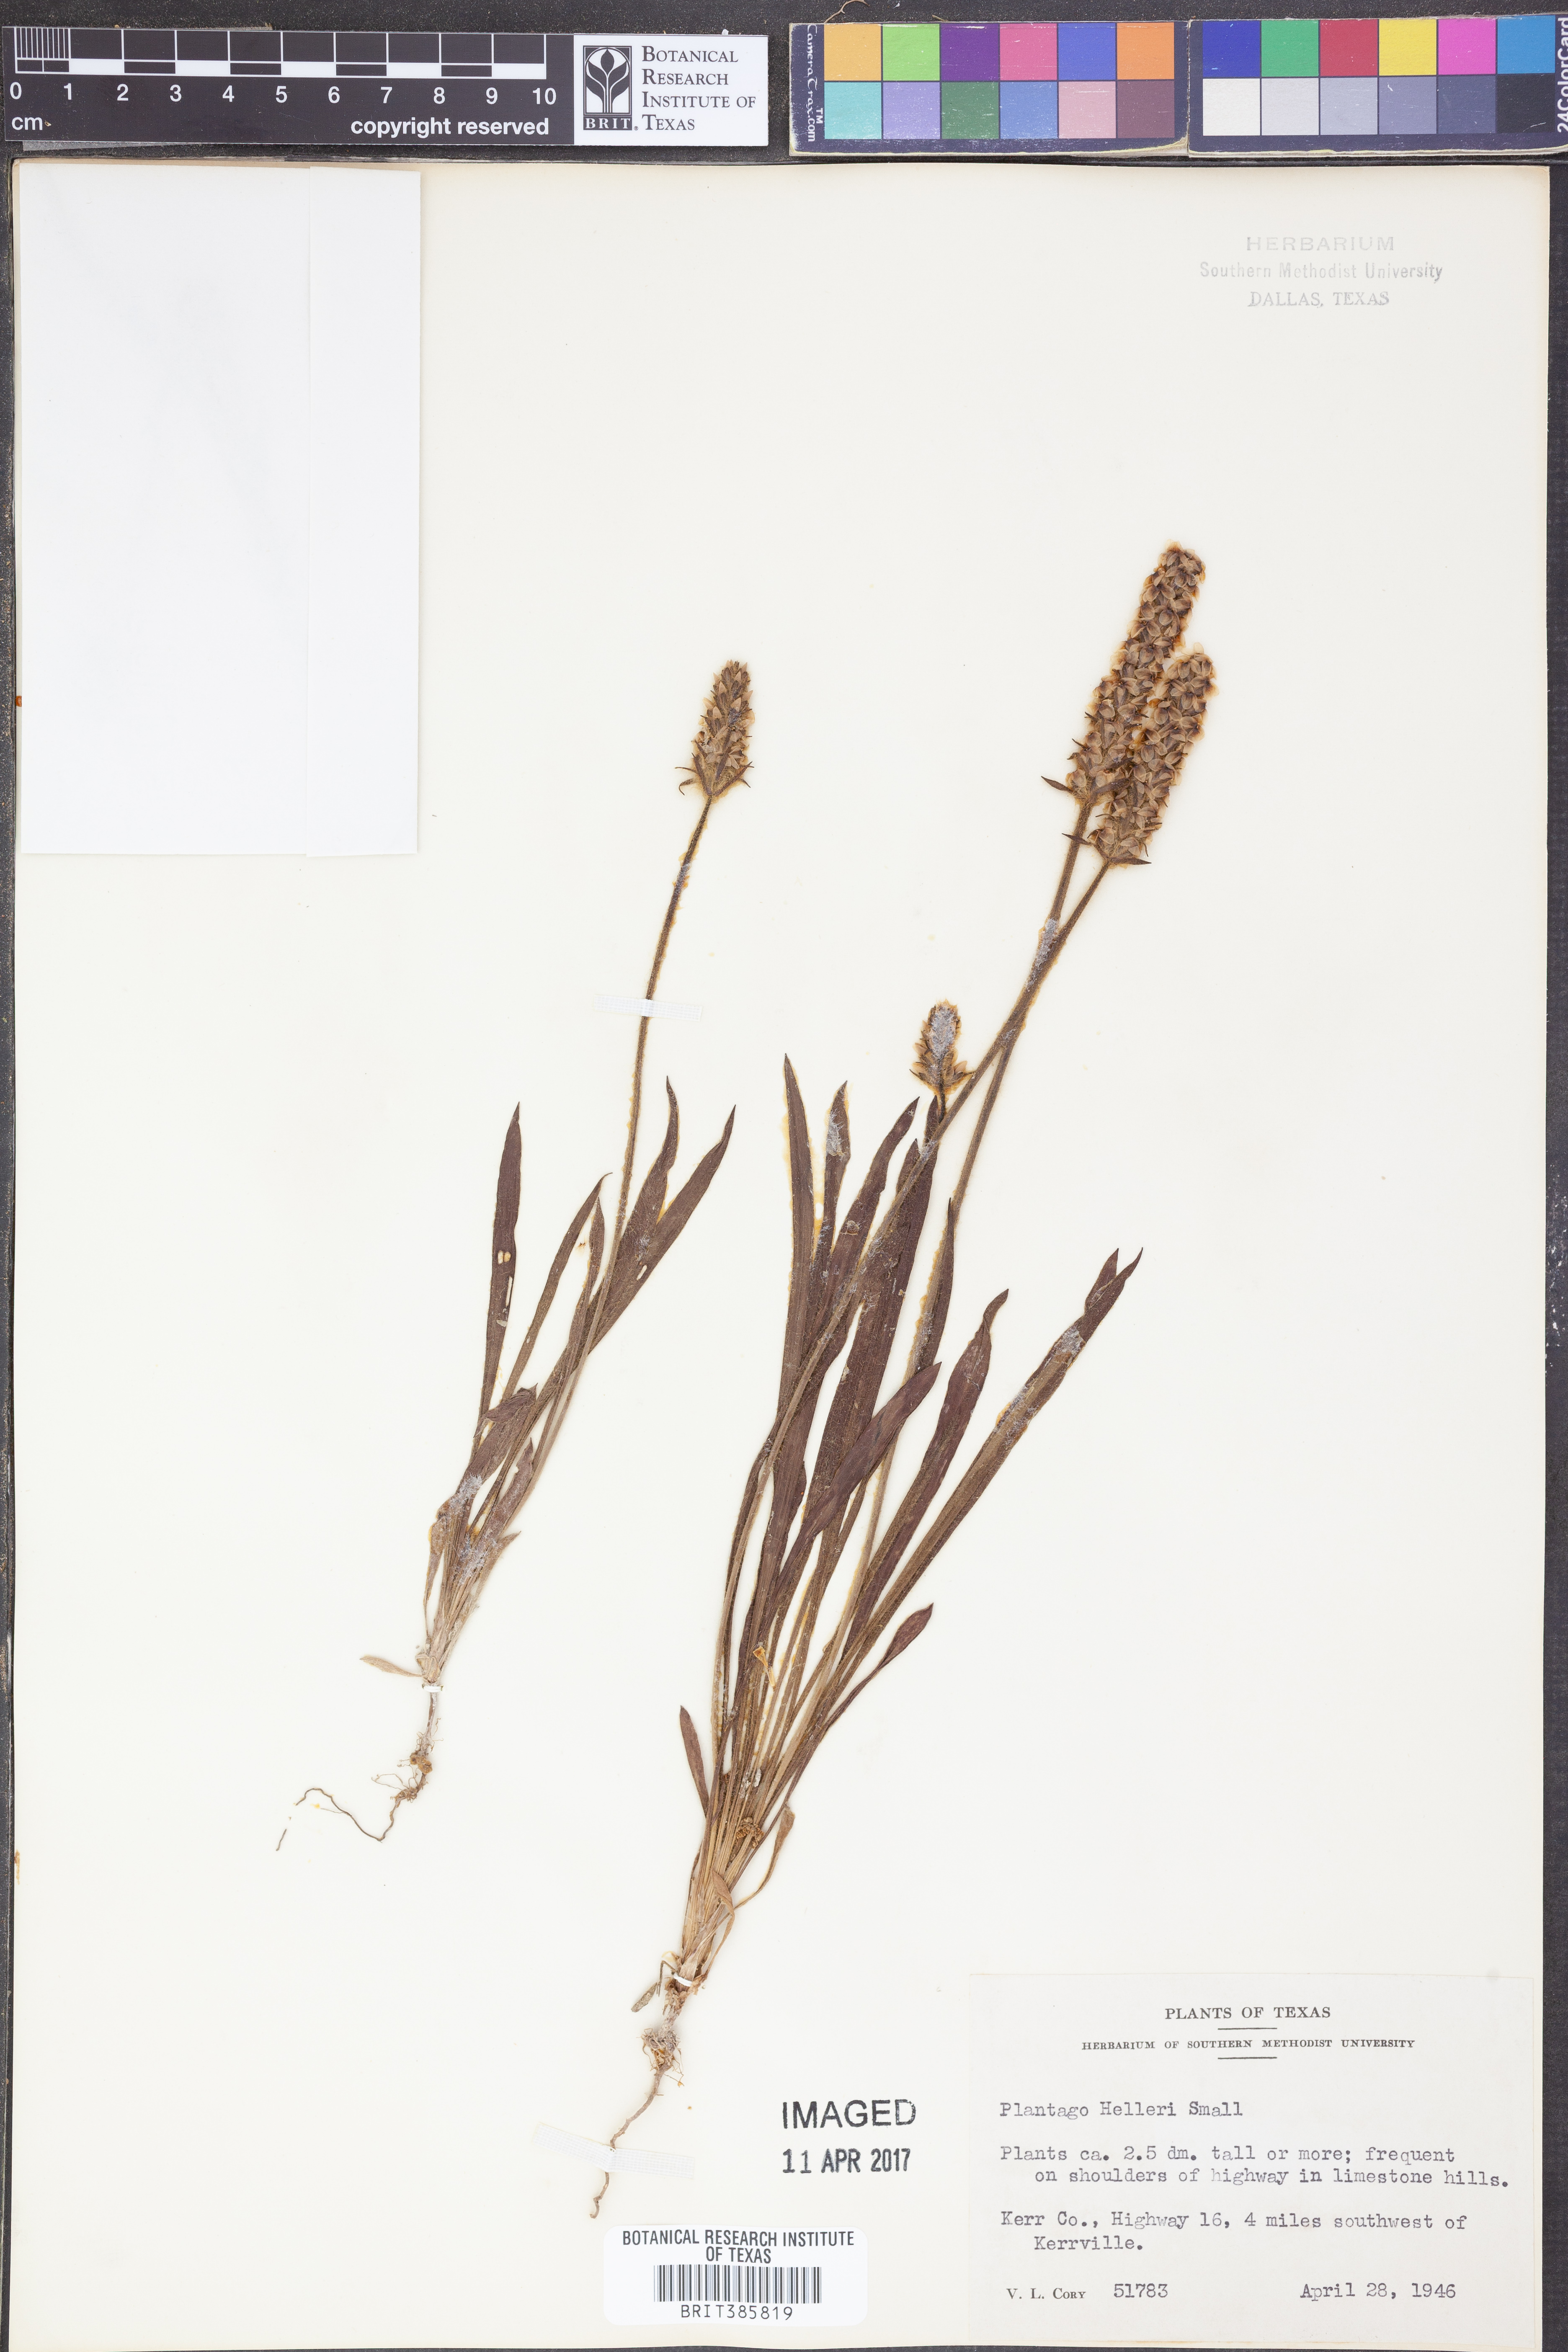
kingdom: Plantae
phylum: Tracheophyta
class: Magnoliopsida
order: Lamiales
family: Plantaginaceae
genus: Plantago
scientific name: Plantago helleri
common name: Heller's plantain
